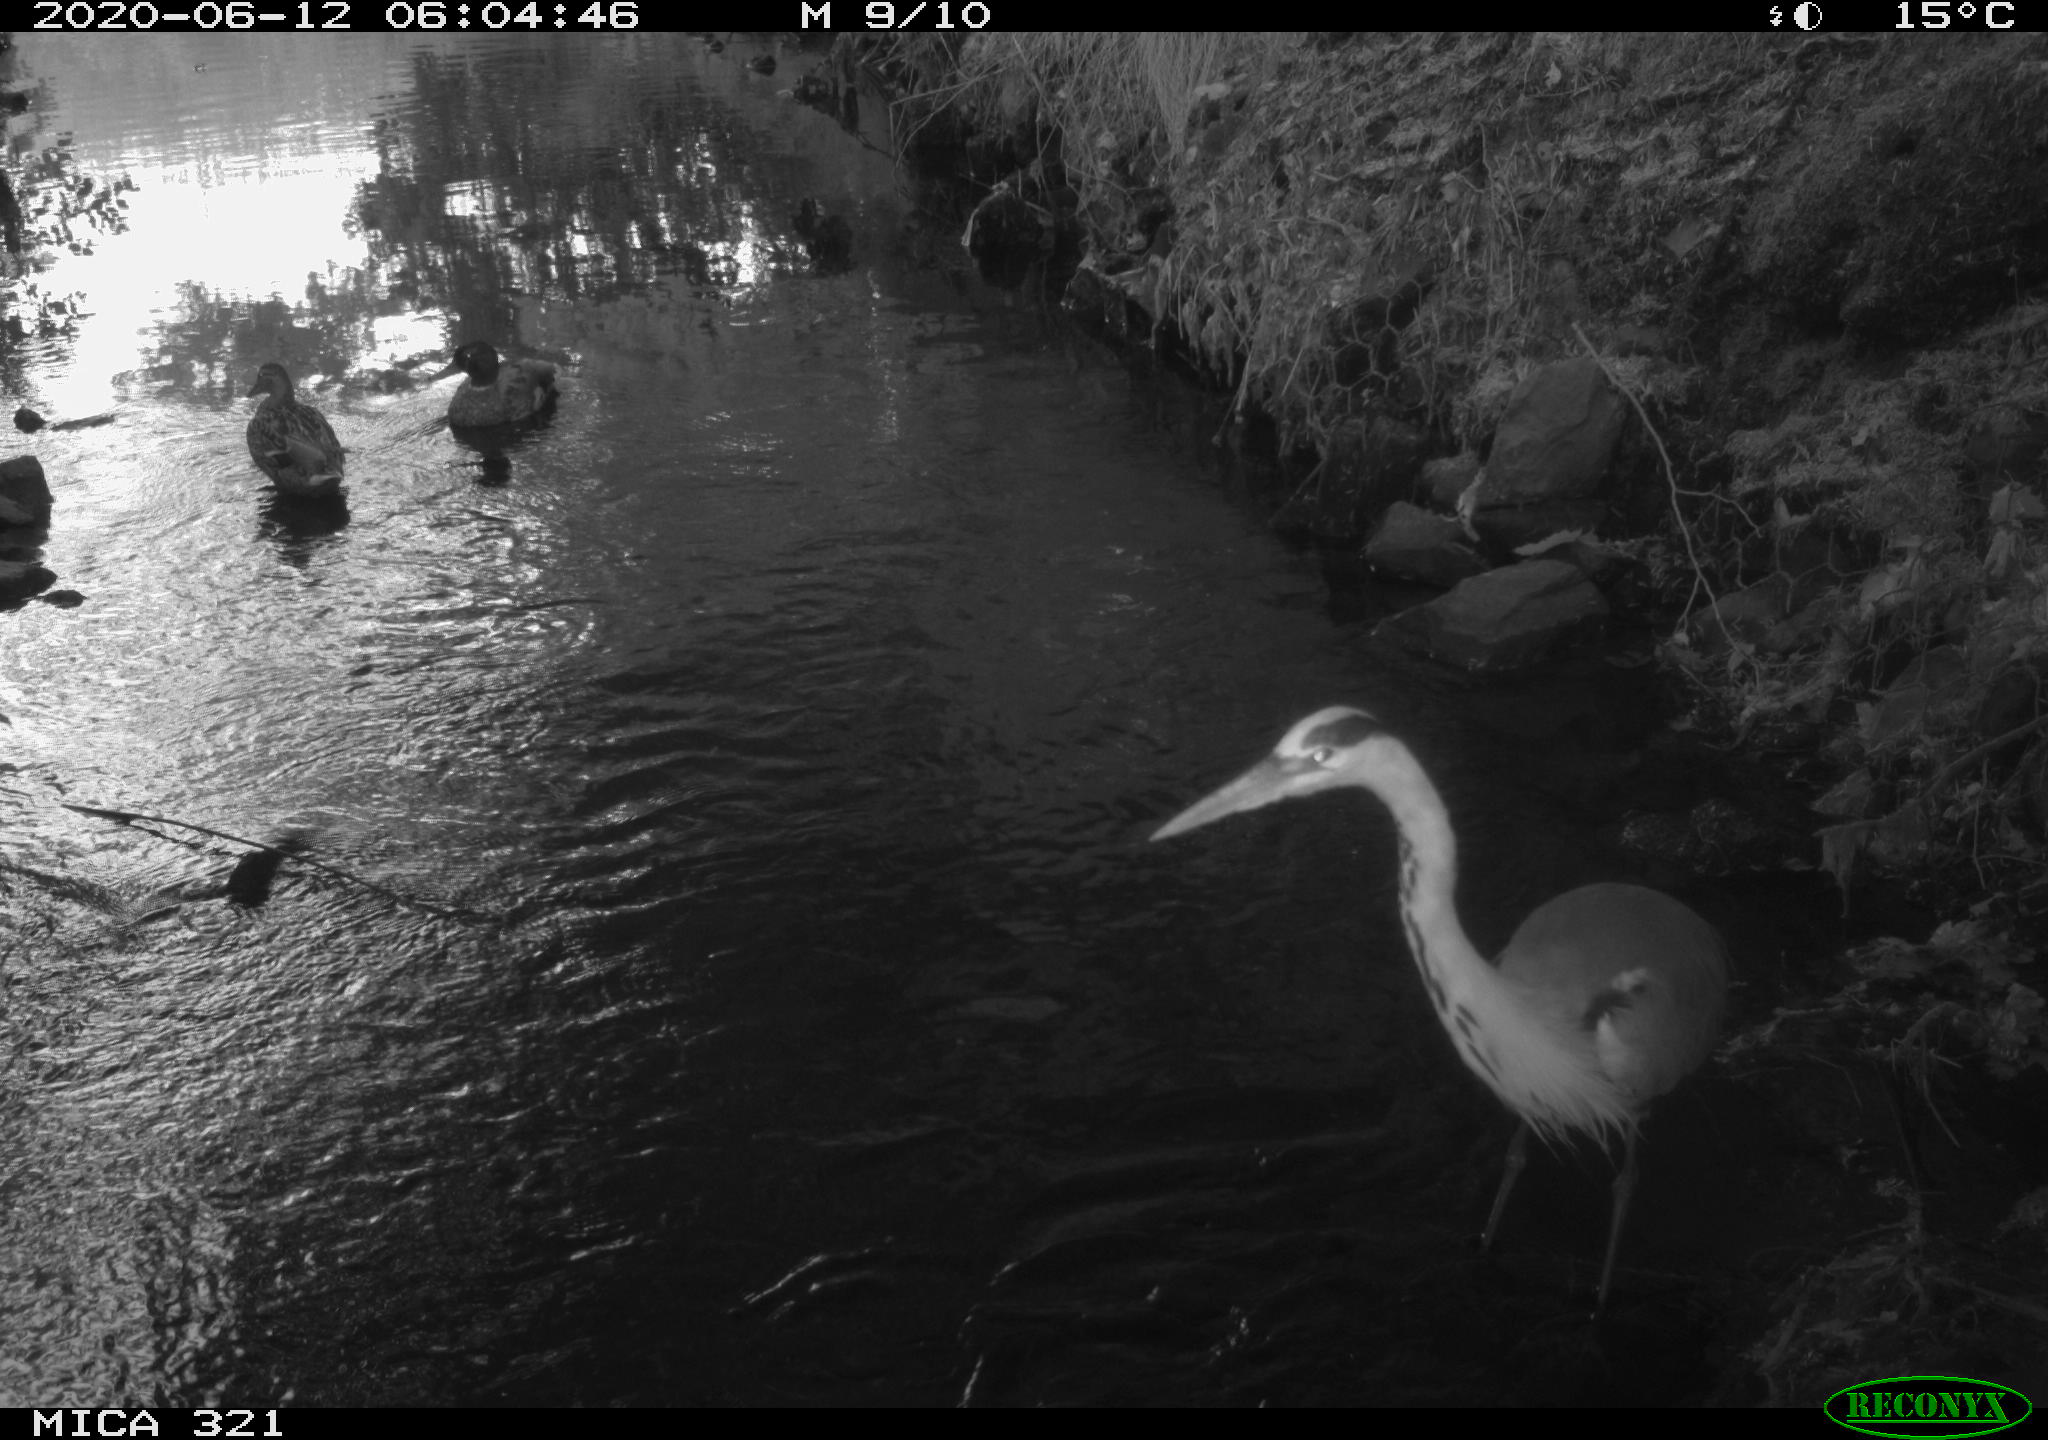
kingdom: Animalia
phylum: Chordata
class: Aves
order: Anseriformes
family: Anatidae
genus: Anas
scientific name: Anas platyrhynchos
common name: Mallard
